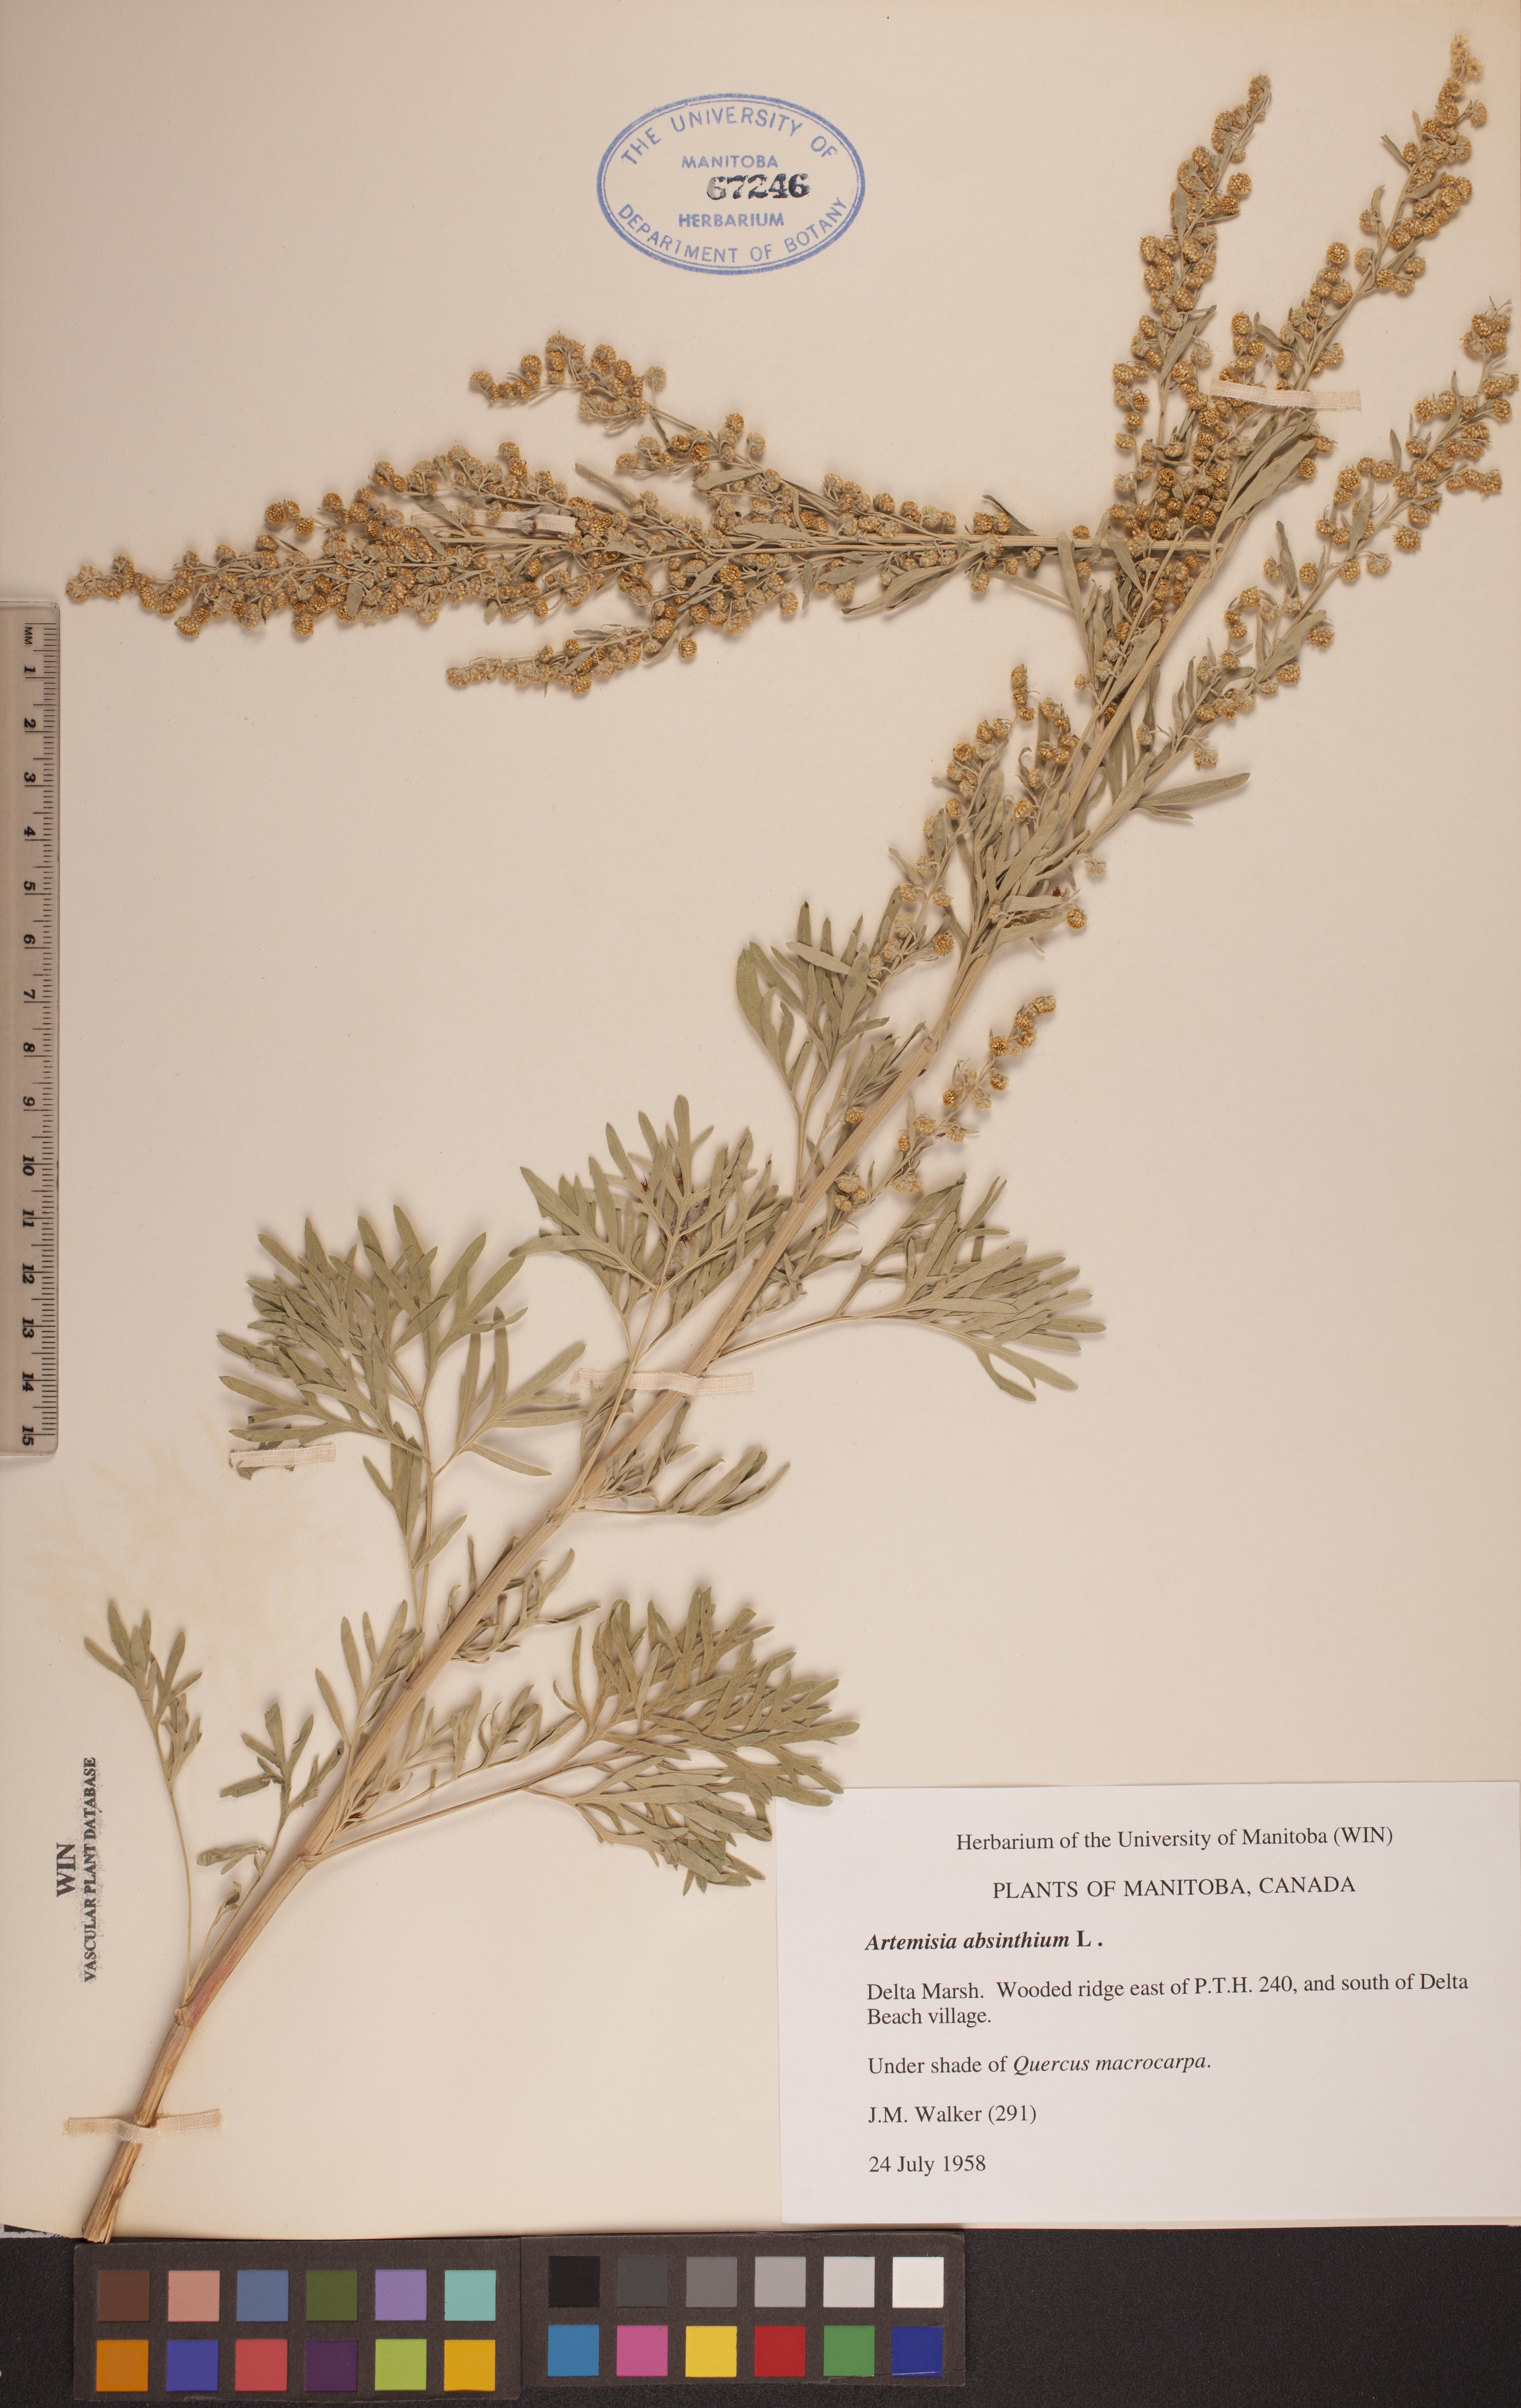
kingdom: Plantae
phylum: Tracheophyta
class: Magnoliopsida
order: Asterales
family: Asteraceae
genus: Artemisia
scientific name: Artemisia absinthium
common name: Wormwood
